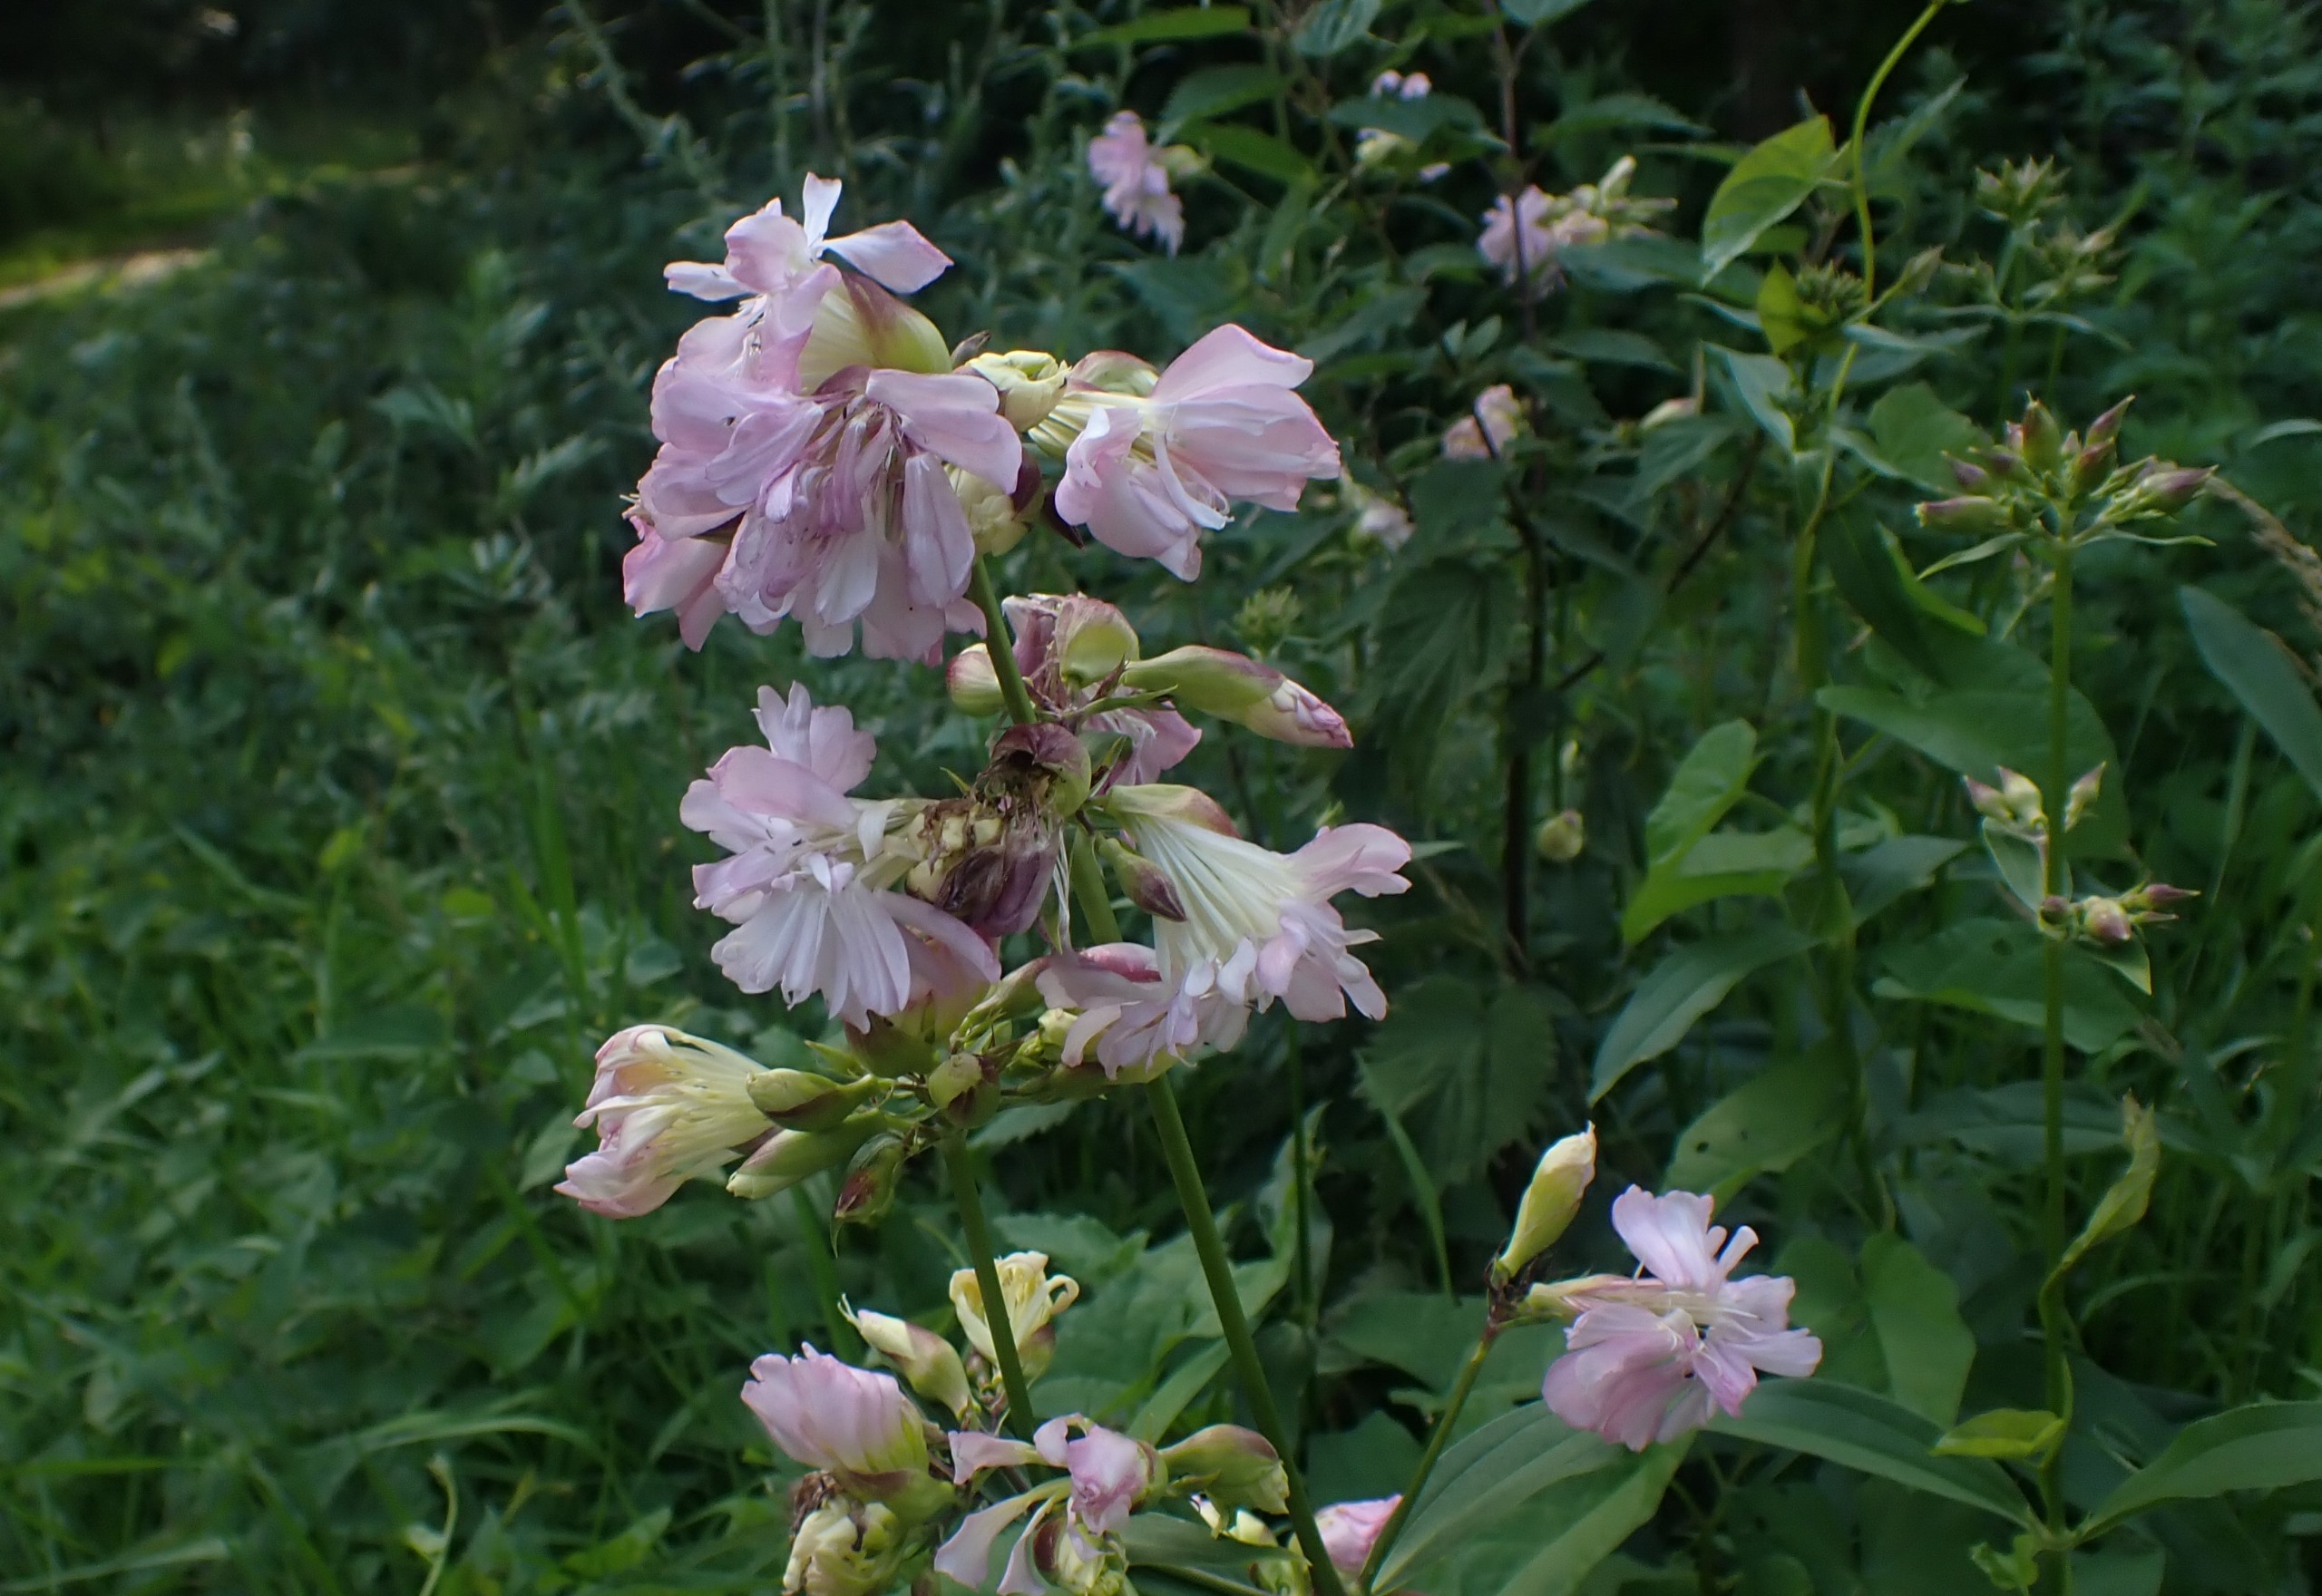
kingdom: Plantae
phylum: Tracheophyta
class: Magnoliopsida
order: Caryophyllales
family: Caryophyllaceae
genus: Saponaria
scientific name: Saponaria officinalis
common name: Sæbeurt
